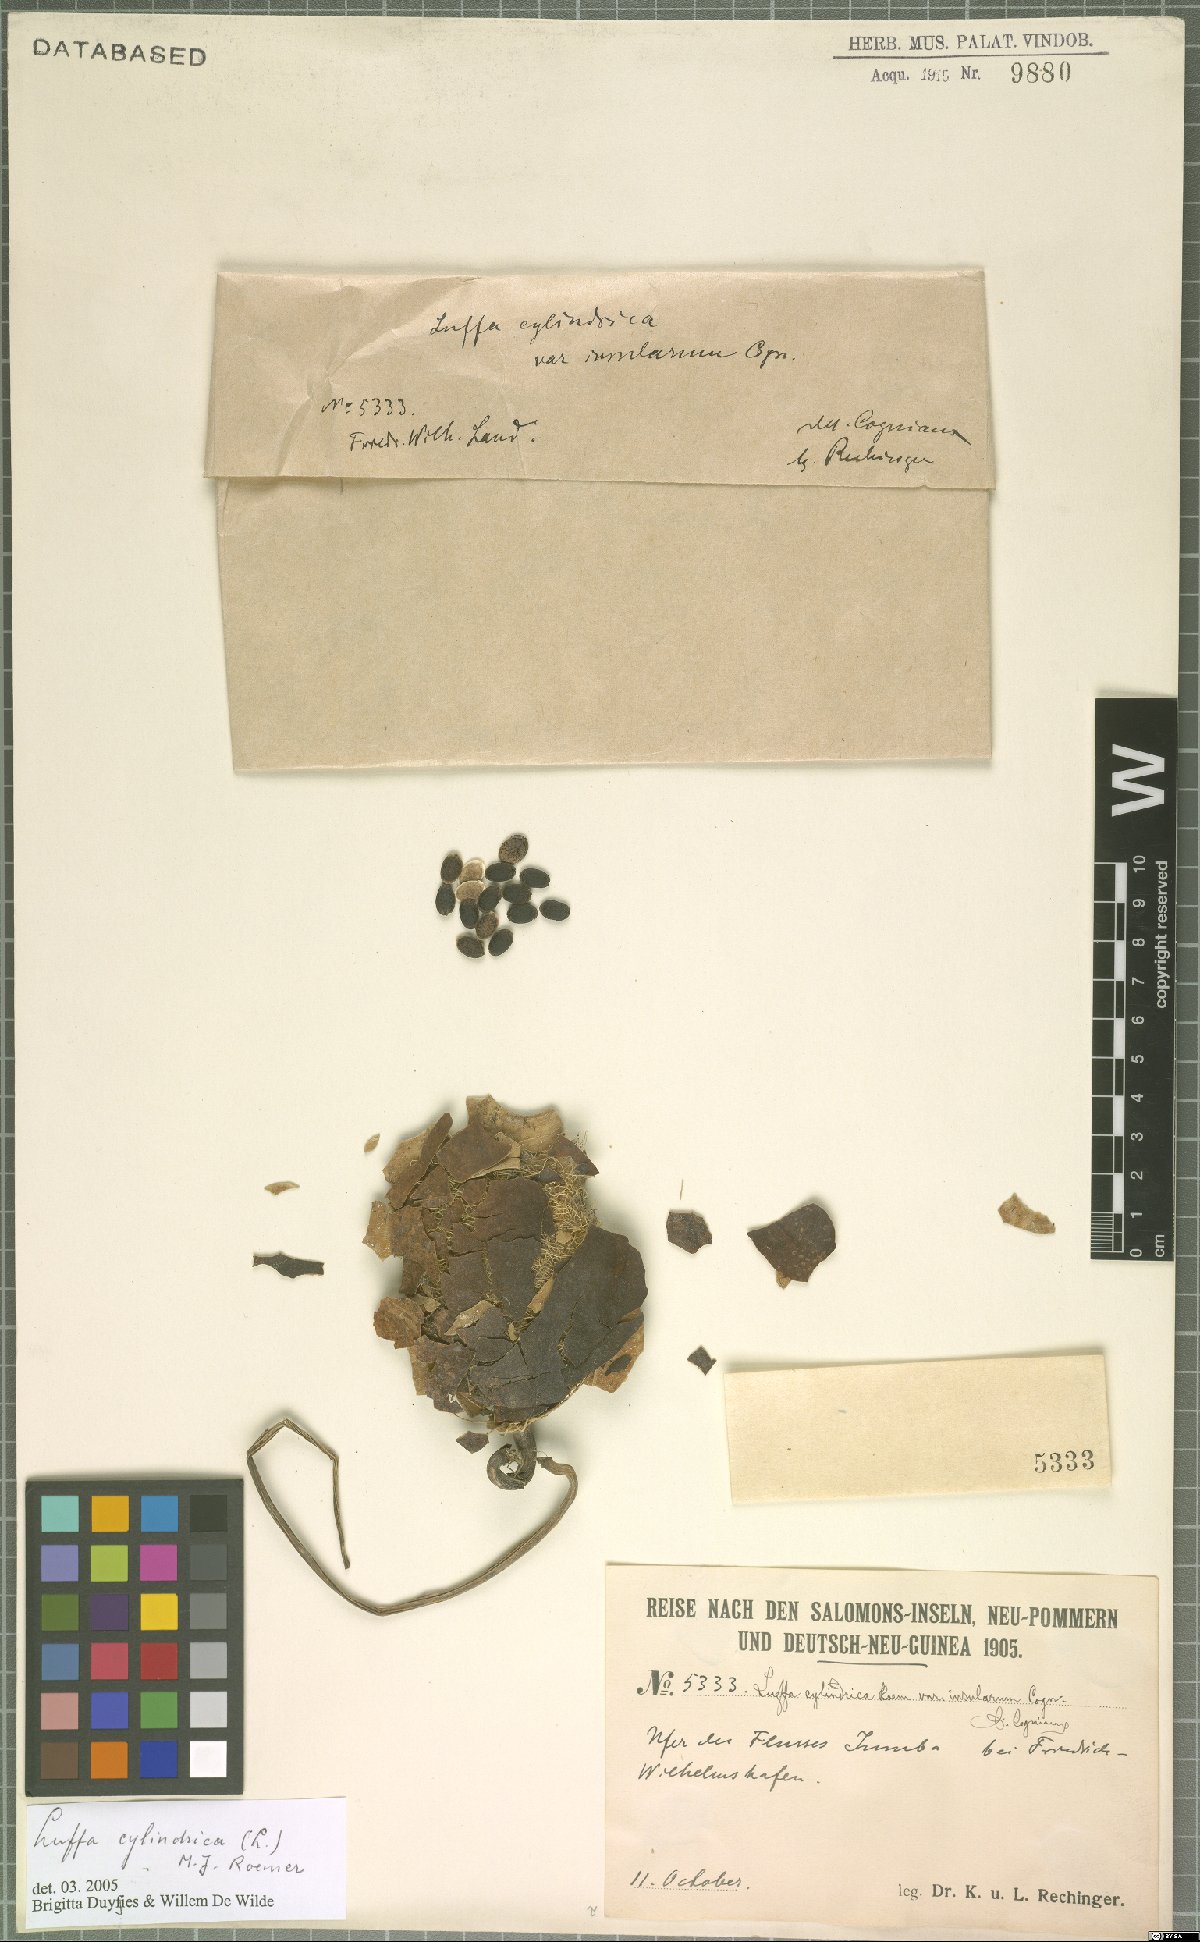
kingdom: Plantae
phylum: Tracheophyta
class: Magnoliopsida
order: Cucurbitales
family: Cucurbitaceae
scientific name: Cucurbitaceae
